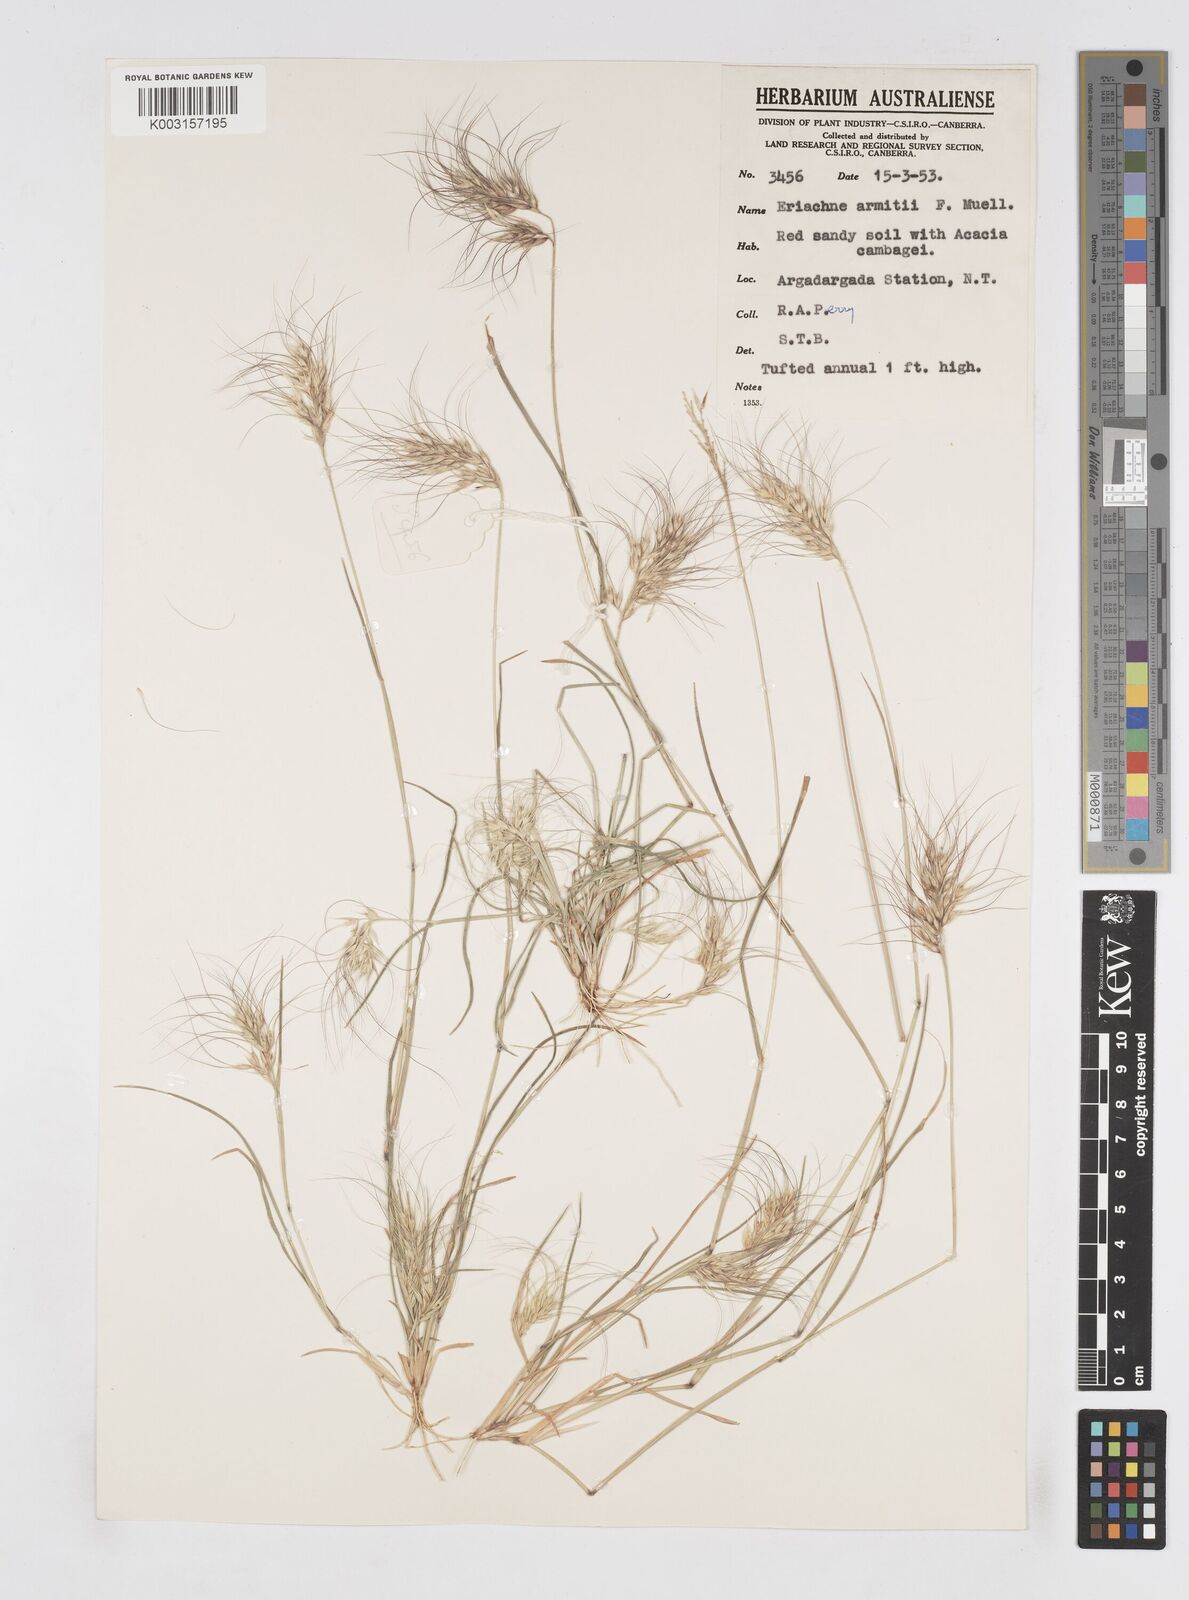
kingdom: Plantae
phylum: Tracheophyta
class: Liliopsida
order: Poales
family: Poaceae
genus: Eriachne
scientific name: Eriachne armitii
